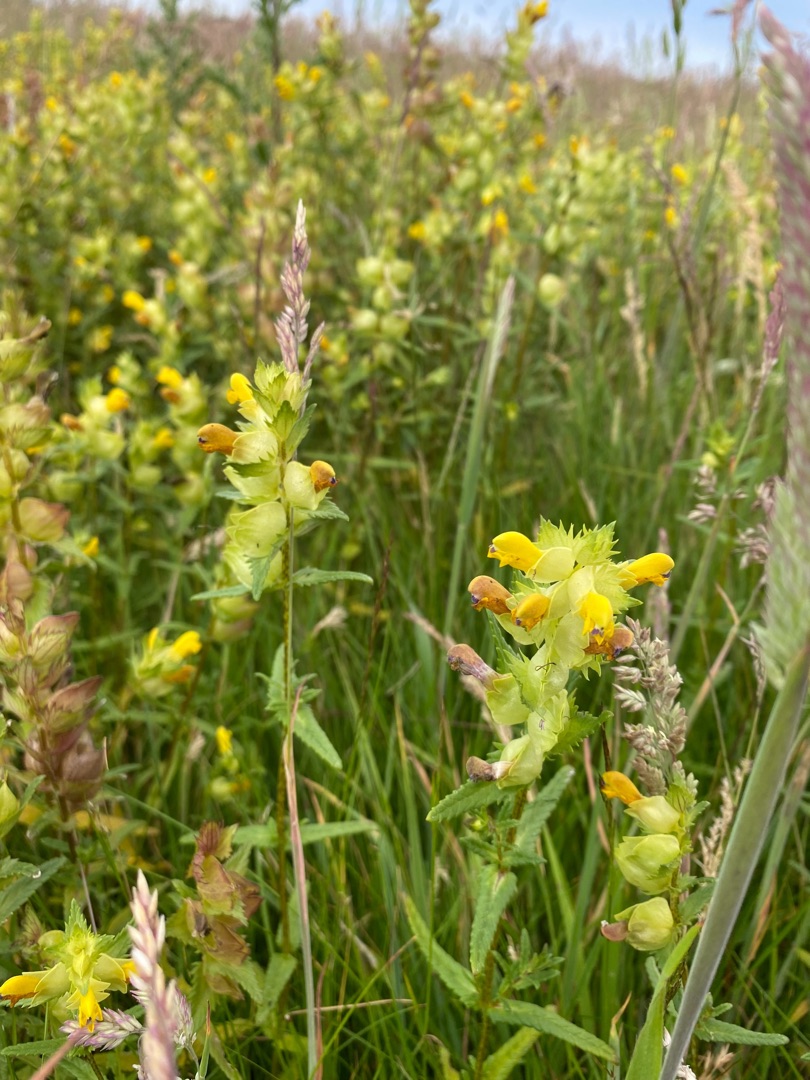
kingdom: Plantae
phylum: Tracheophyta
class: Magnoliopsida
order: Lamiales
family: Orobanchaceae
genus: Rhinanthus
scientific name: Rhinanthus
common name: Stor skjaller
